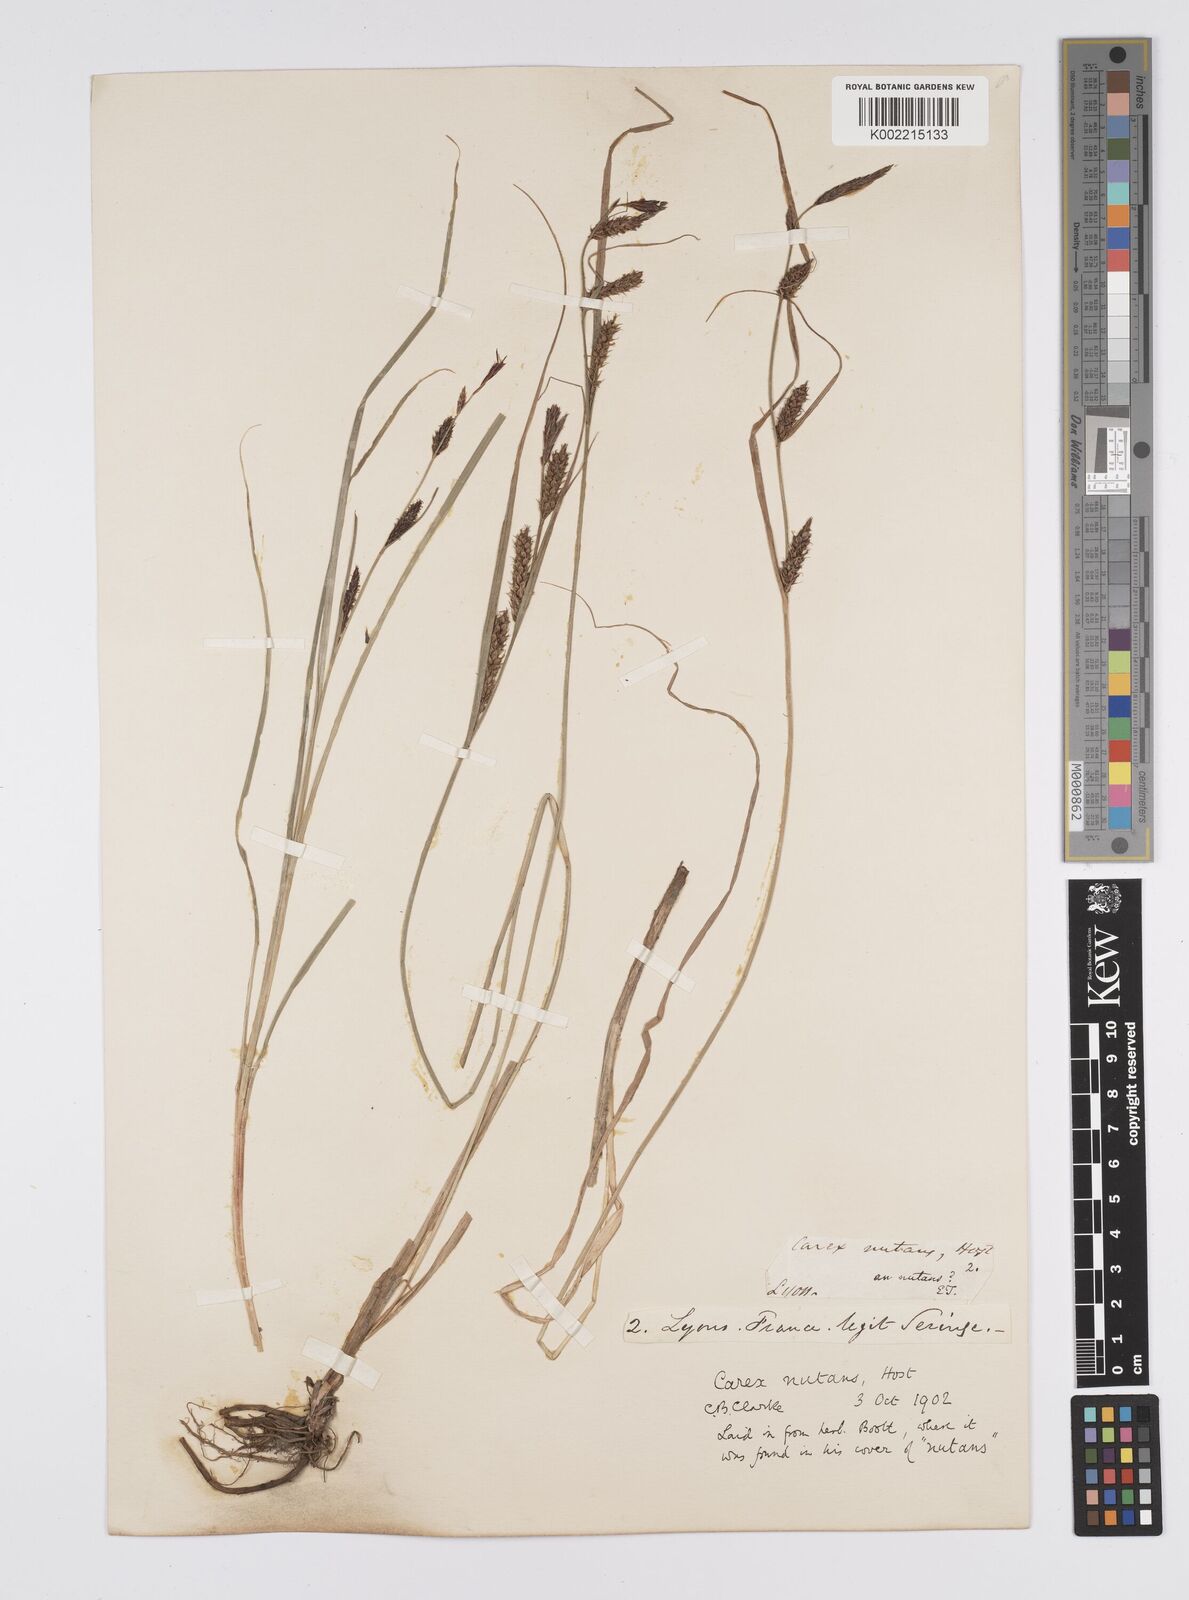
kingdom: Plantae
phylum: Tracheophyta
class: Liliopsida
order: Poales
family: Cyperaceae
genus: Carex
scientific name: Carex melanostachya
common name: Black-spiked sedge
